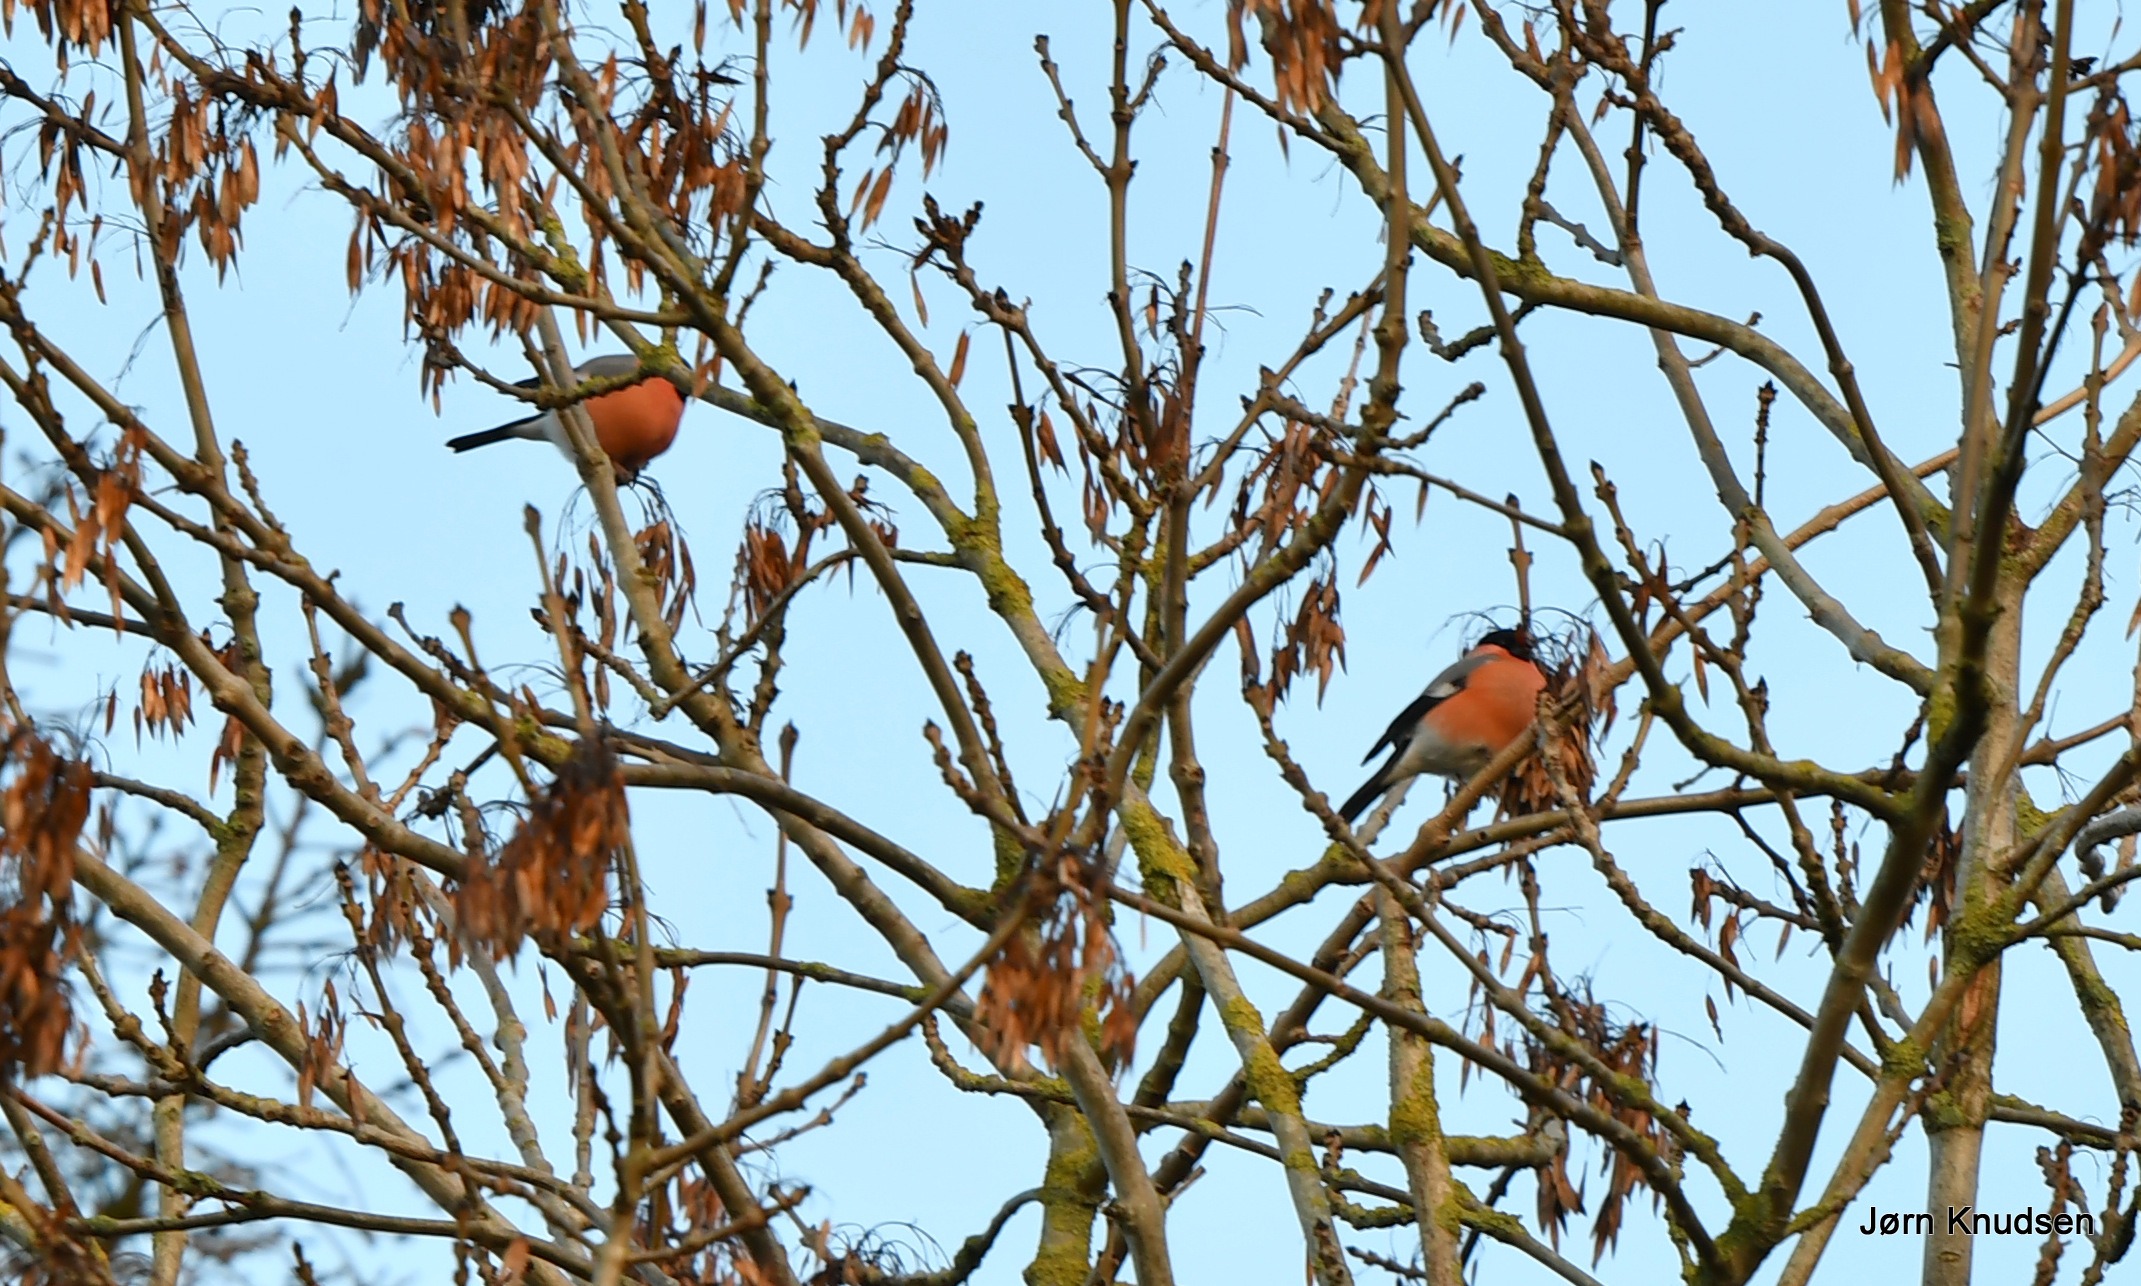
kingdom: Animalia
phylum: Chordata
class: Aves
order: Passeriformes
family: Fringillidae
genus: Pyrrhula
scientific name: Pyrrhula pyrrhula
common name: Dompap
